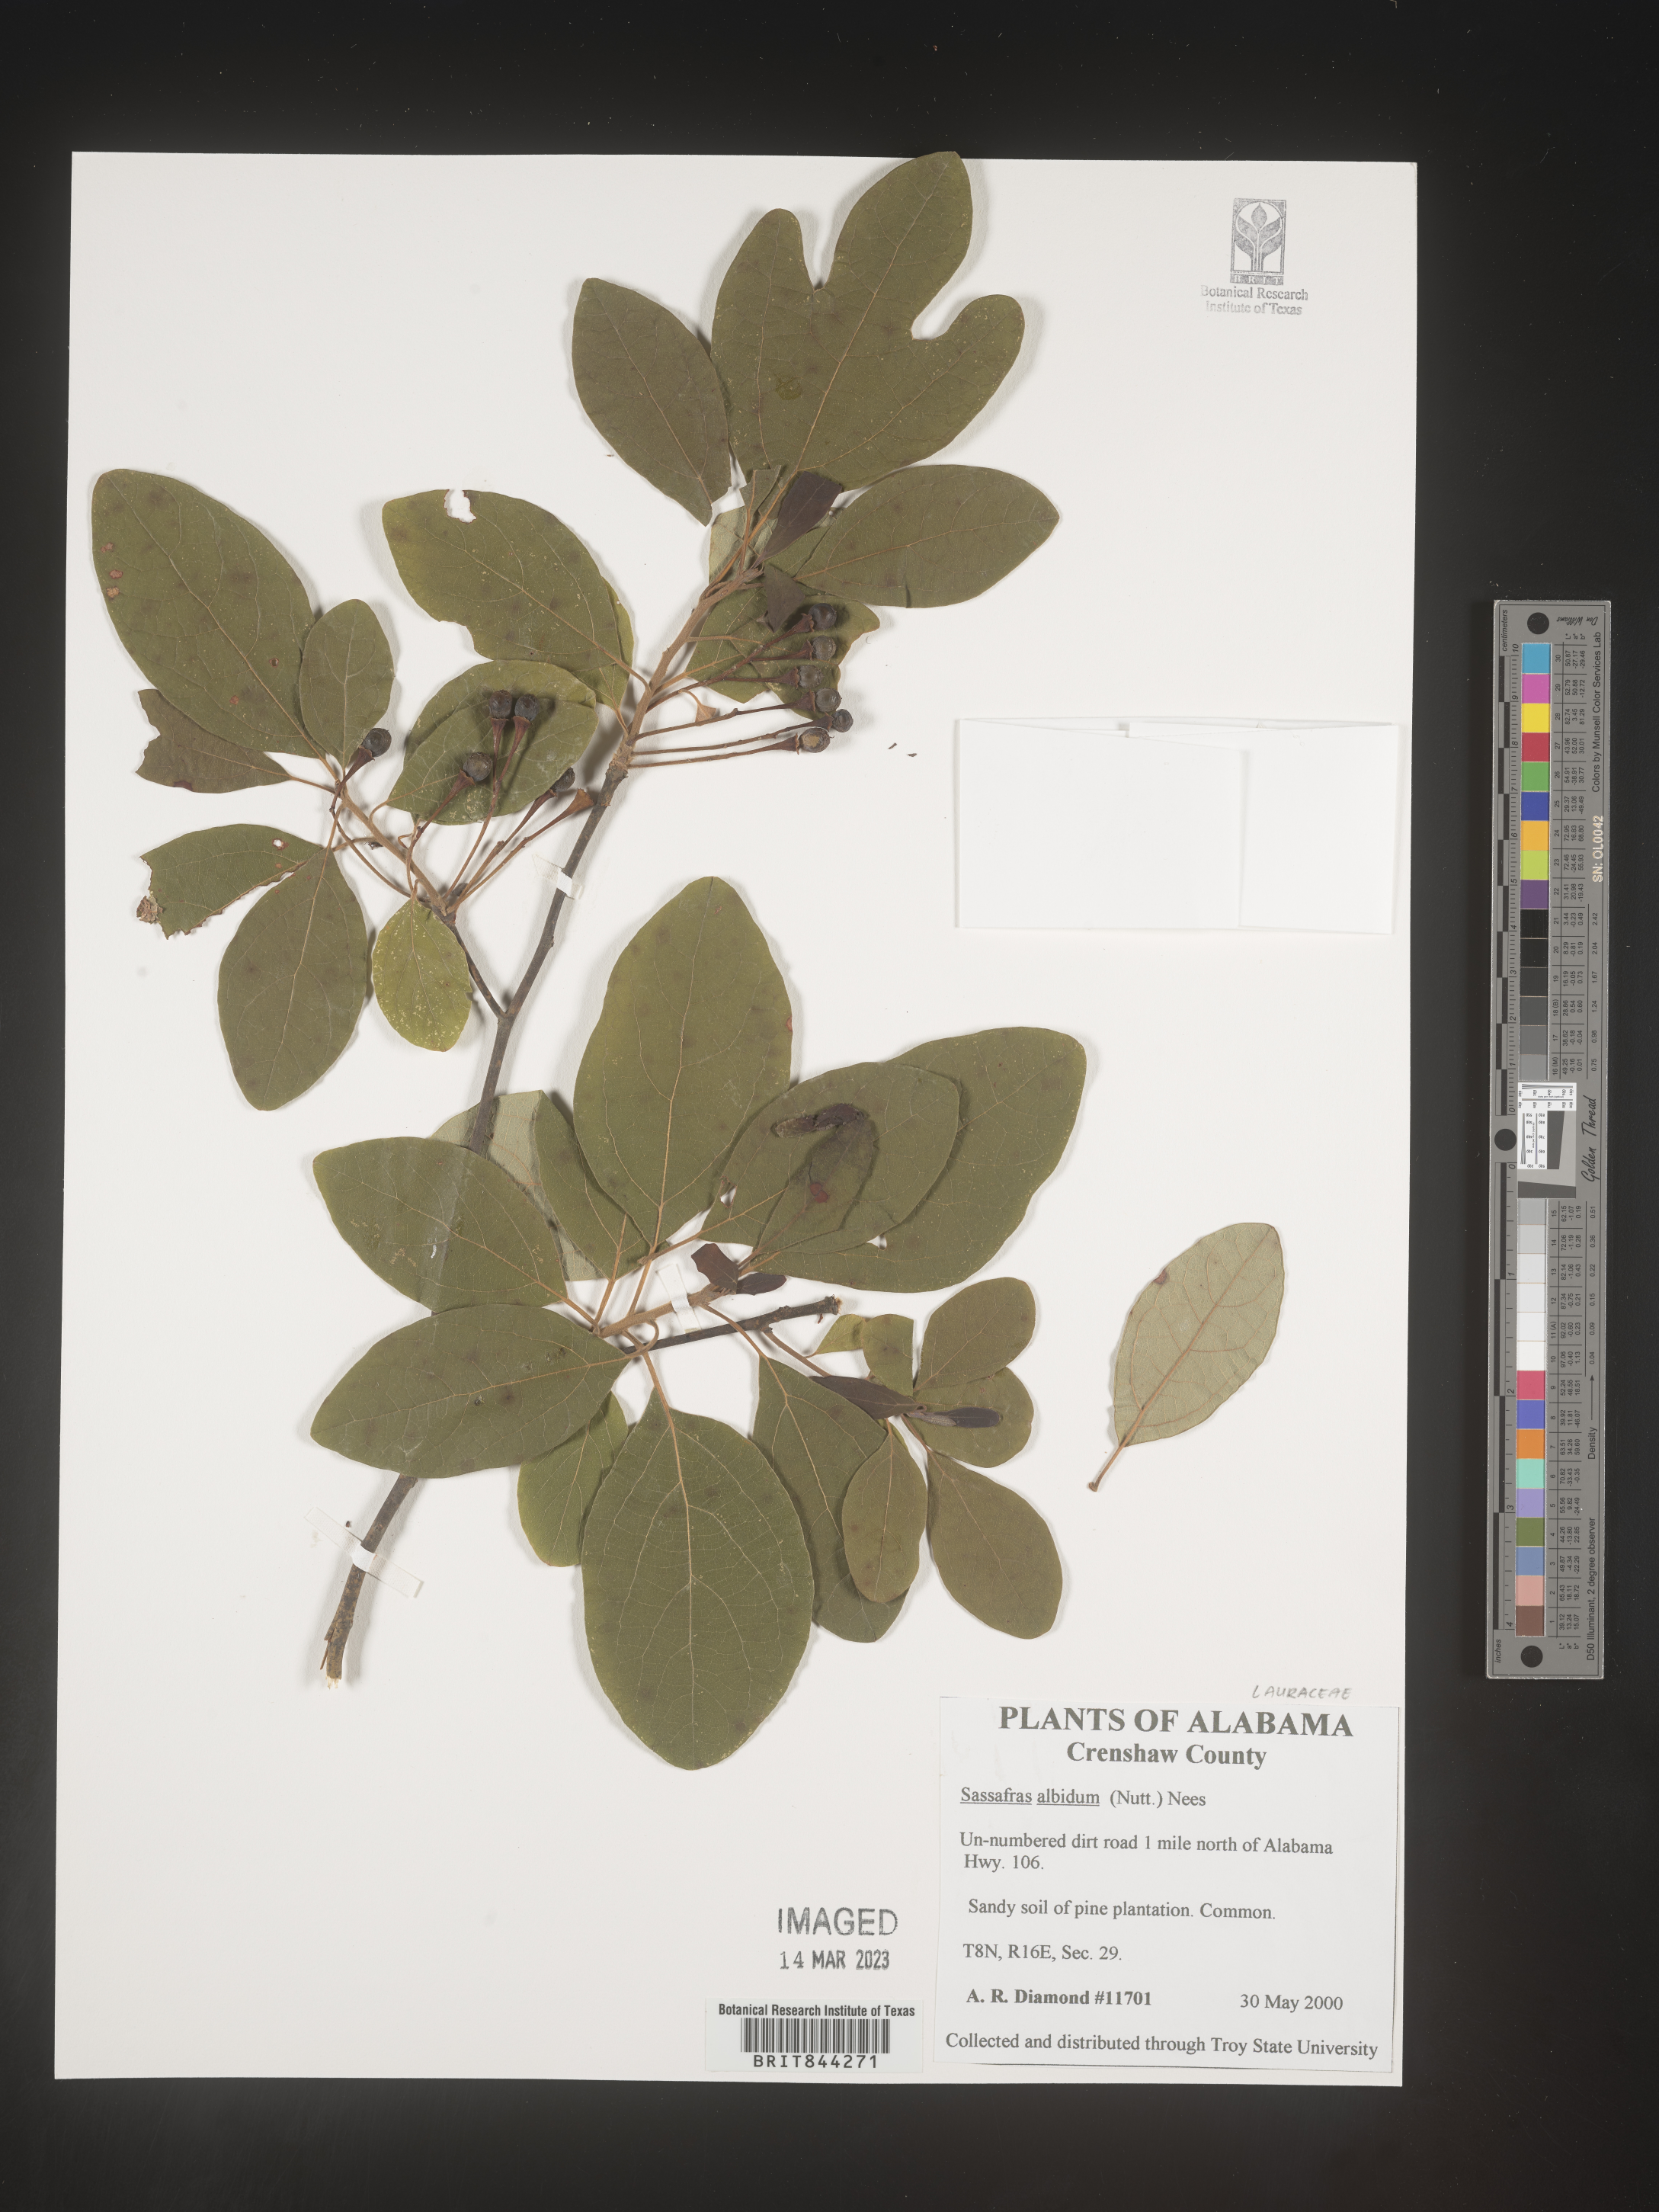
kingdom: Plantae
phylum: Tracheophyta
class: Magnoliopsida
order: Laurales
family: Lauraceae
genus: Sassafras
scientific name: Sassafras albidum
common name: Sassafras
